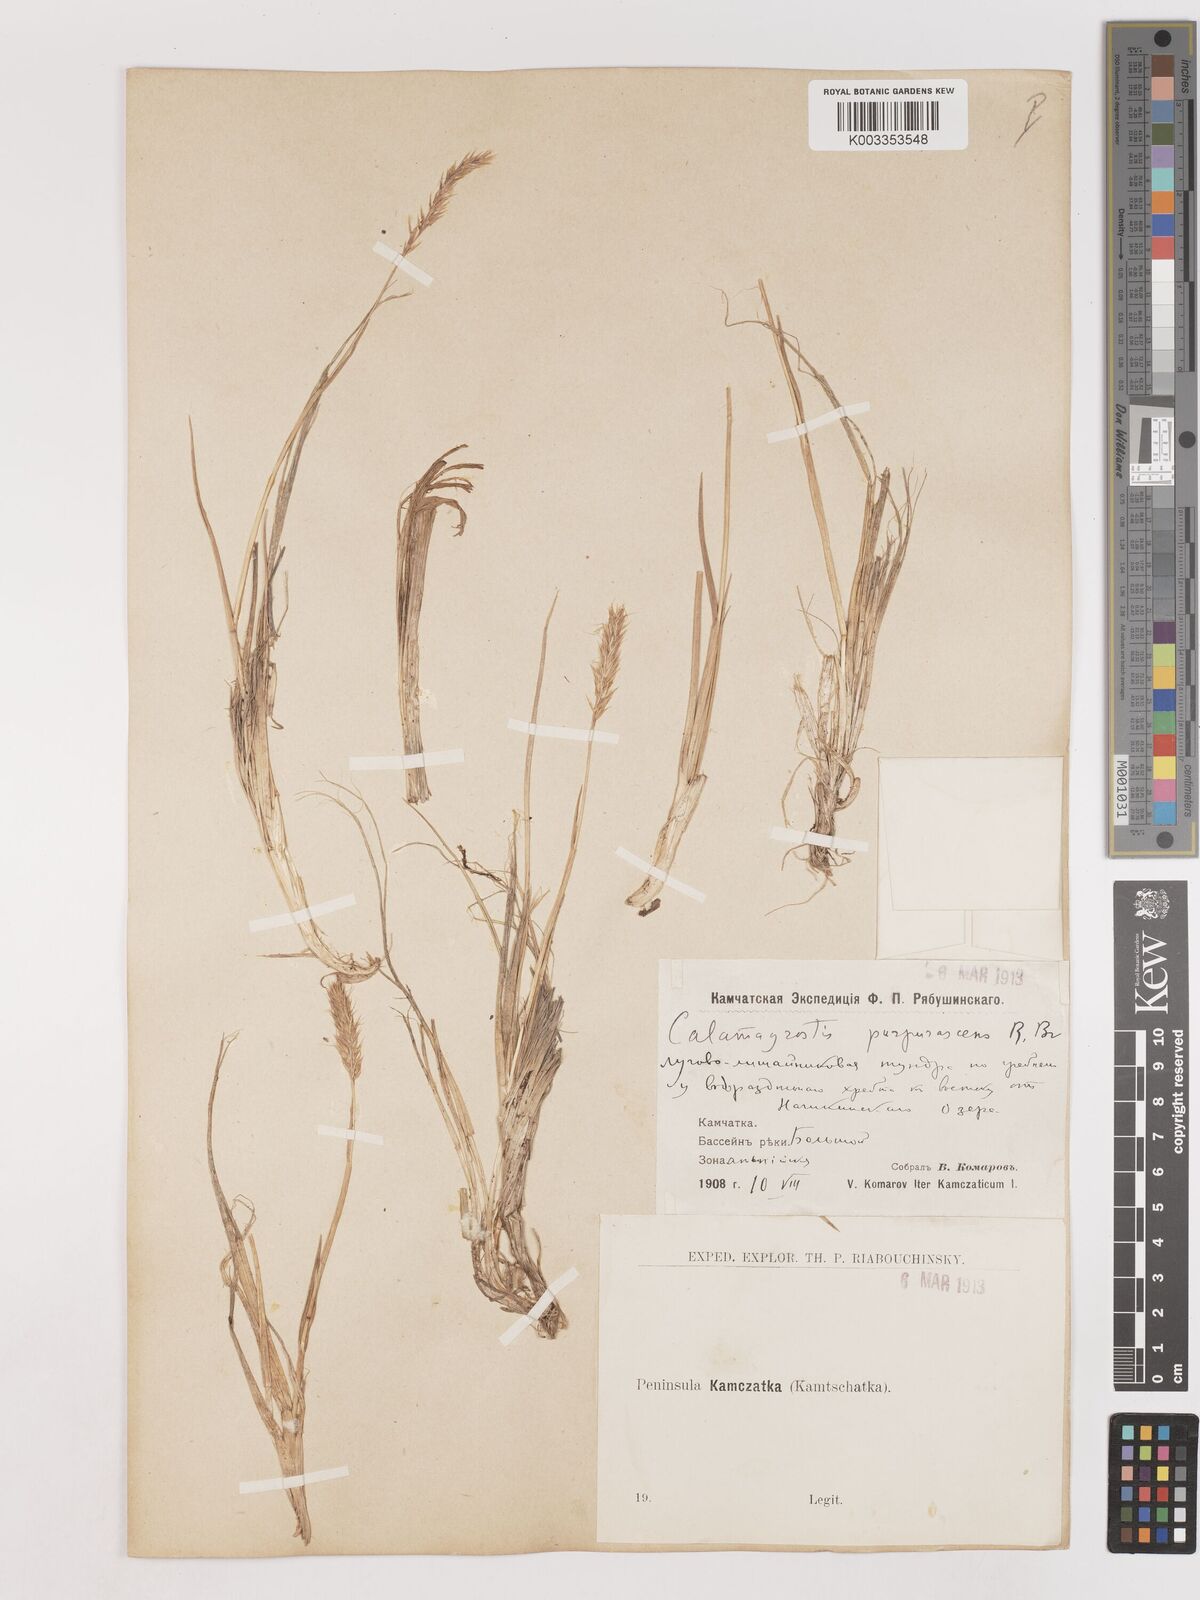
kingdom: Plantae
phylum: Tracheophyta
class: Liliopsida
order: Poales
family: Poaceae
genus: Calamagrostis
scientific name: Calamagrostis purpurascens
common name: Purple reedgrass
